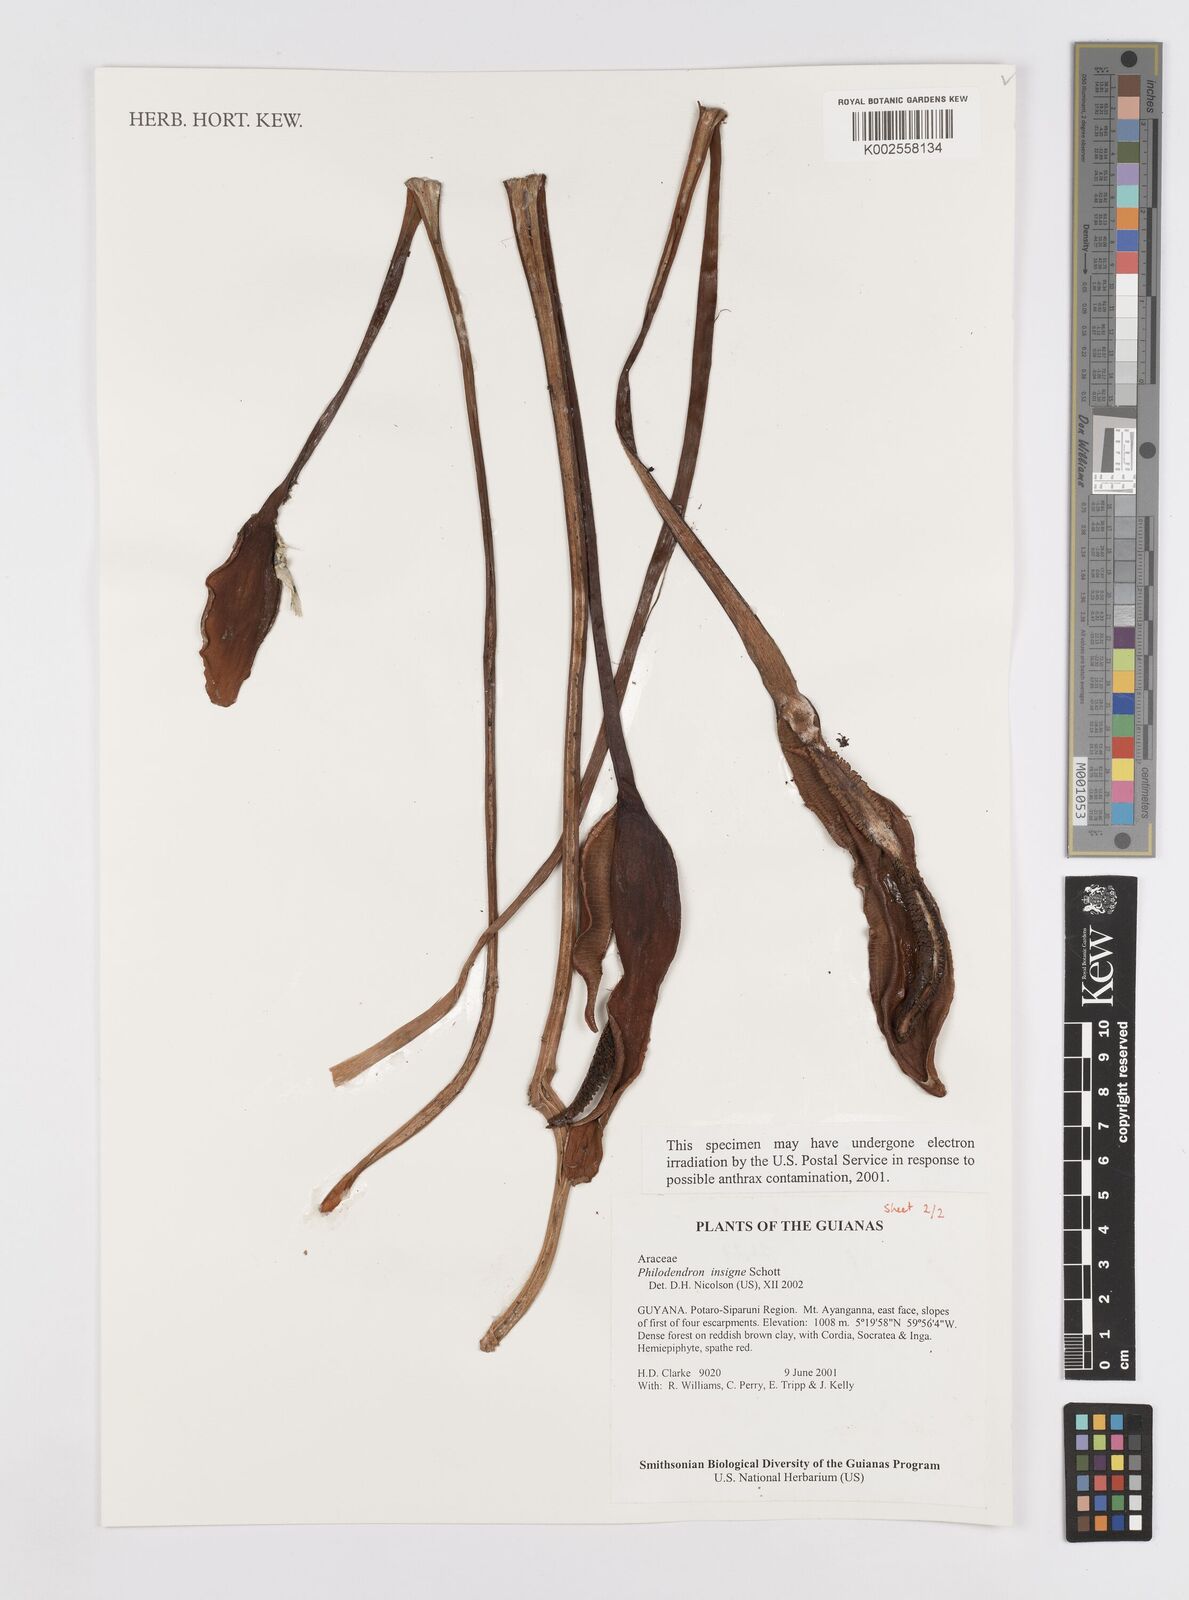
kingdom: Plantae
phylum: Tracheophyta
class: Liliopsida
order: Alismatales
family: Araceae
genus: Philodendron
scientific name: Philodendron insigne
